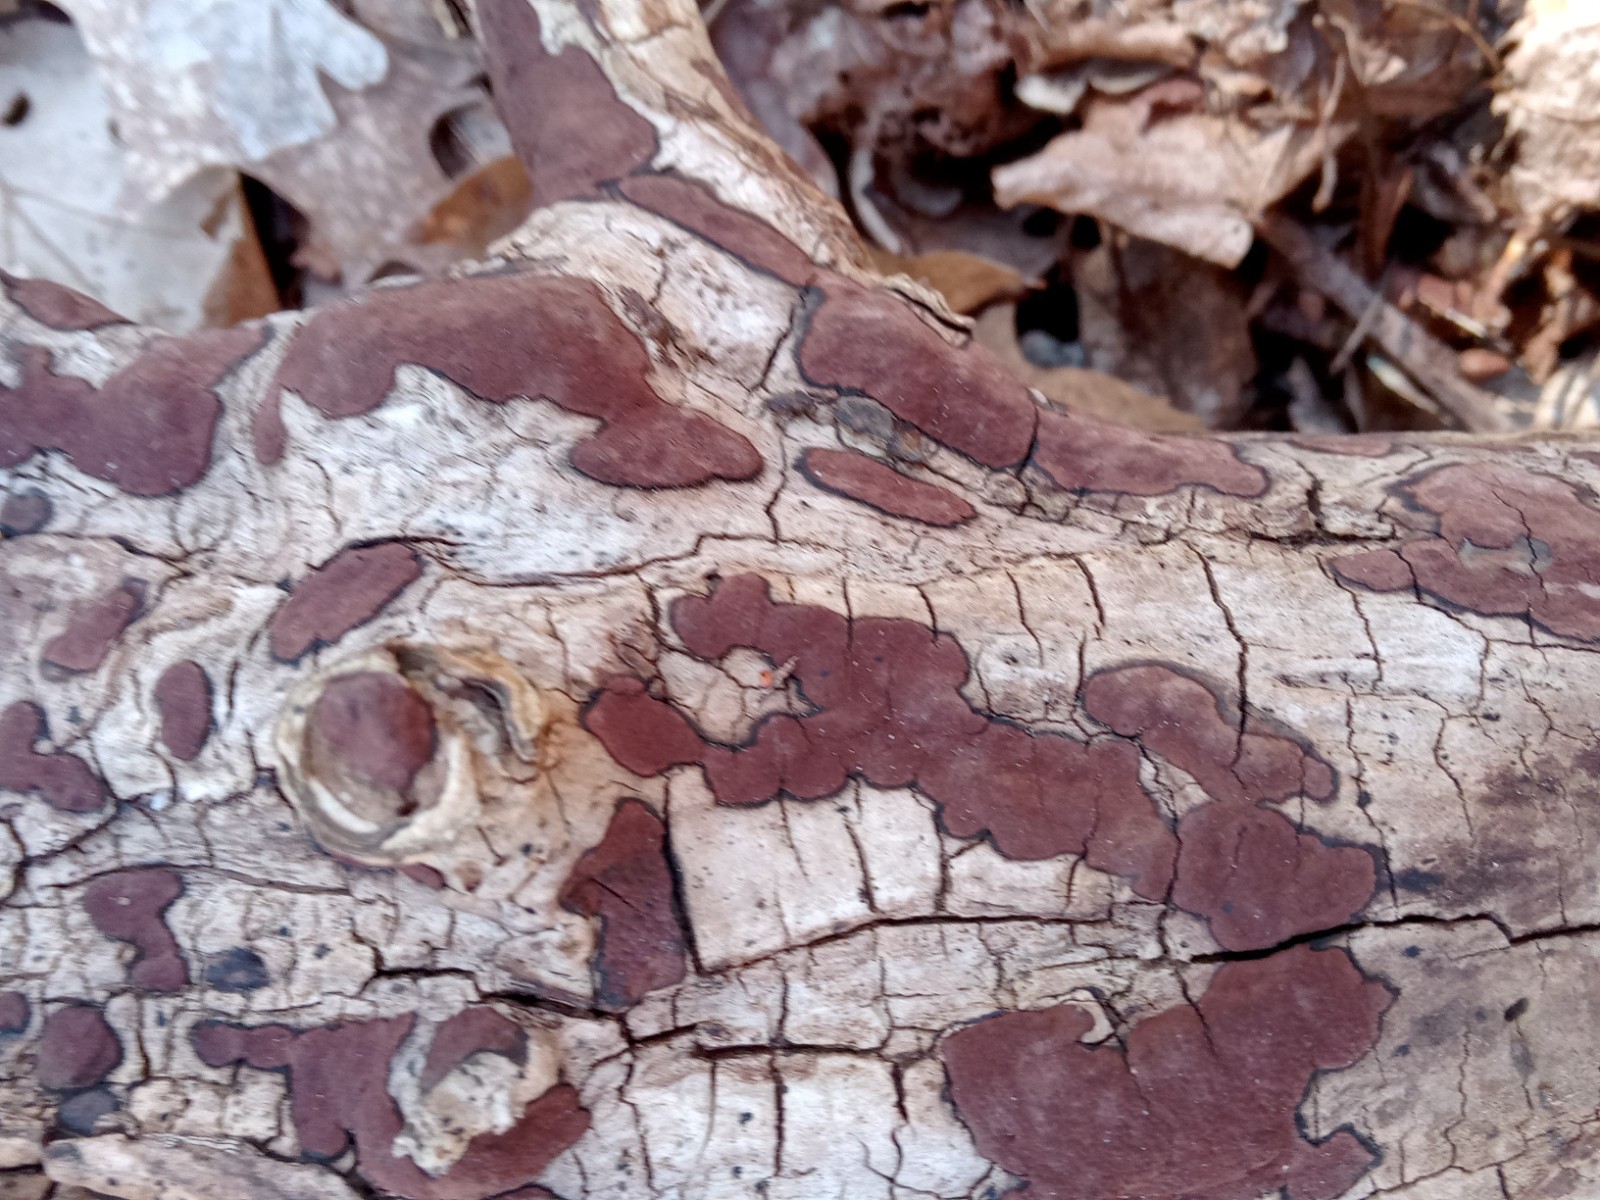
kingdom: Fungi
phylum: Ascomycota
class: Sordariomycetes
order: Xylariales
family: Hypoxylaceae
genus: Hypoxylon
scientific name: Hypoxylon petriniae
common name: nedsænket kulbær
